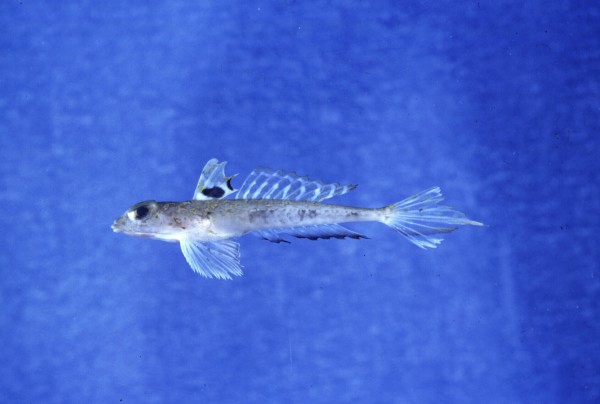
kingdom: Animalia
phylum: Chordata
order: Perciformes
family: Callionymidae
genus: Callionymus
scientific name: Callionymus bentuviai
